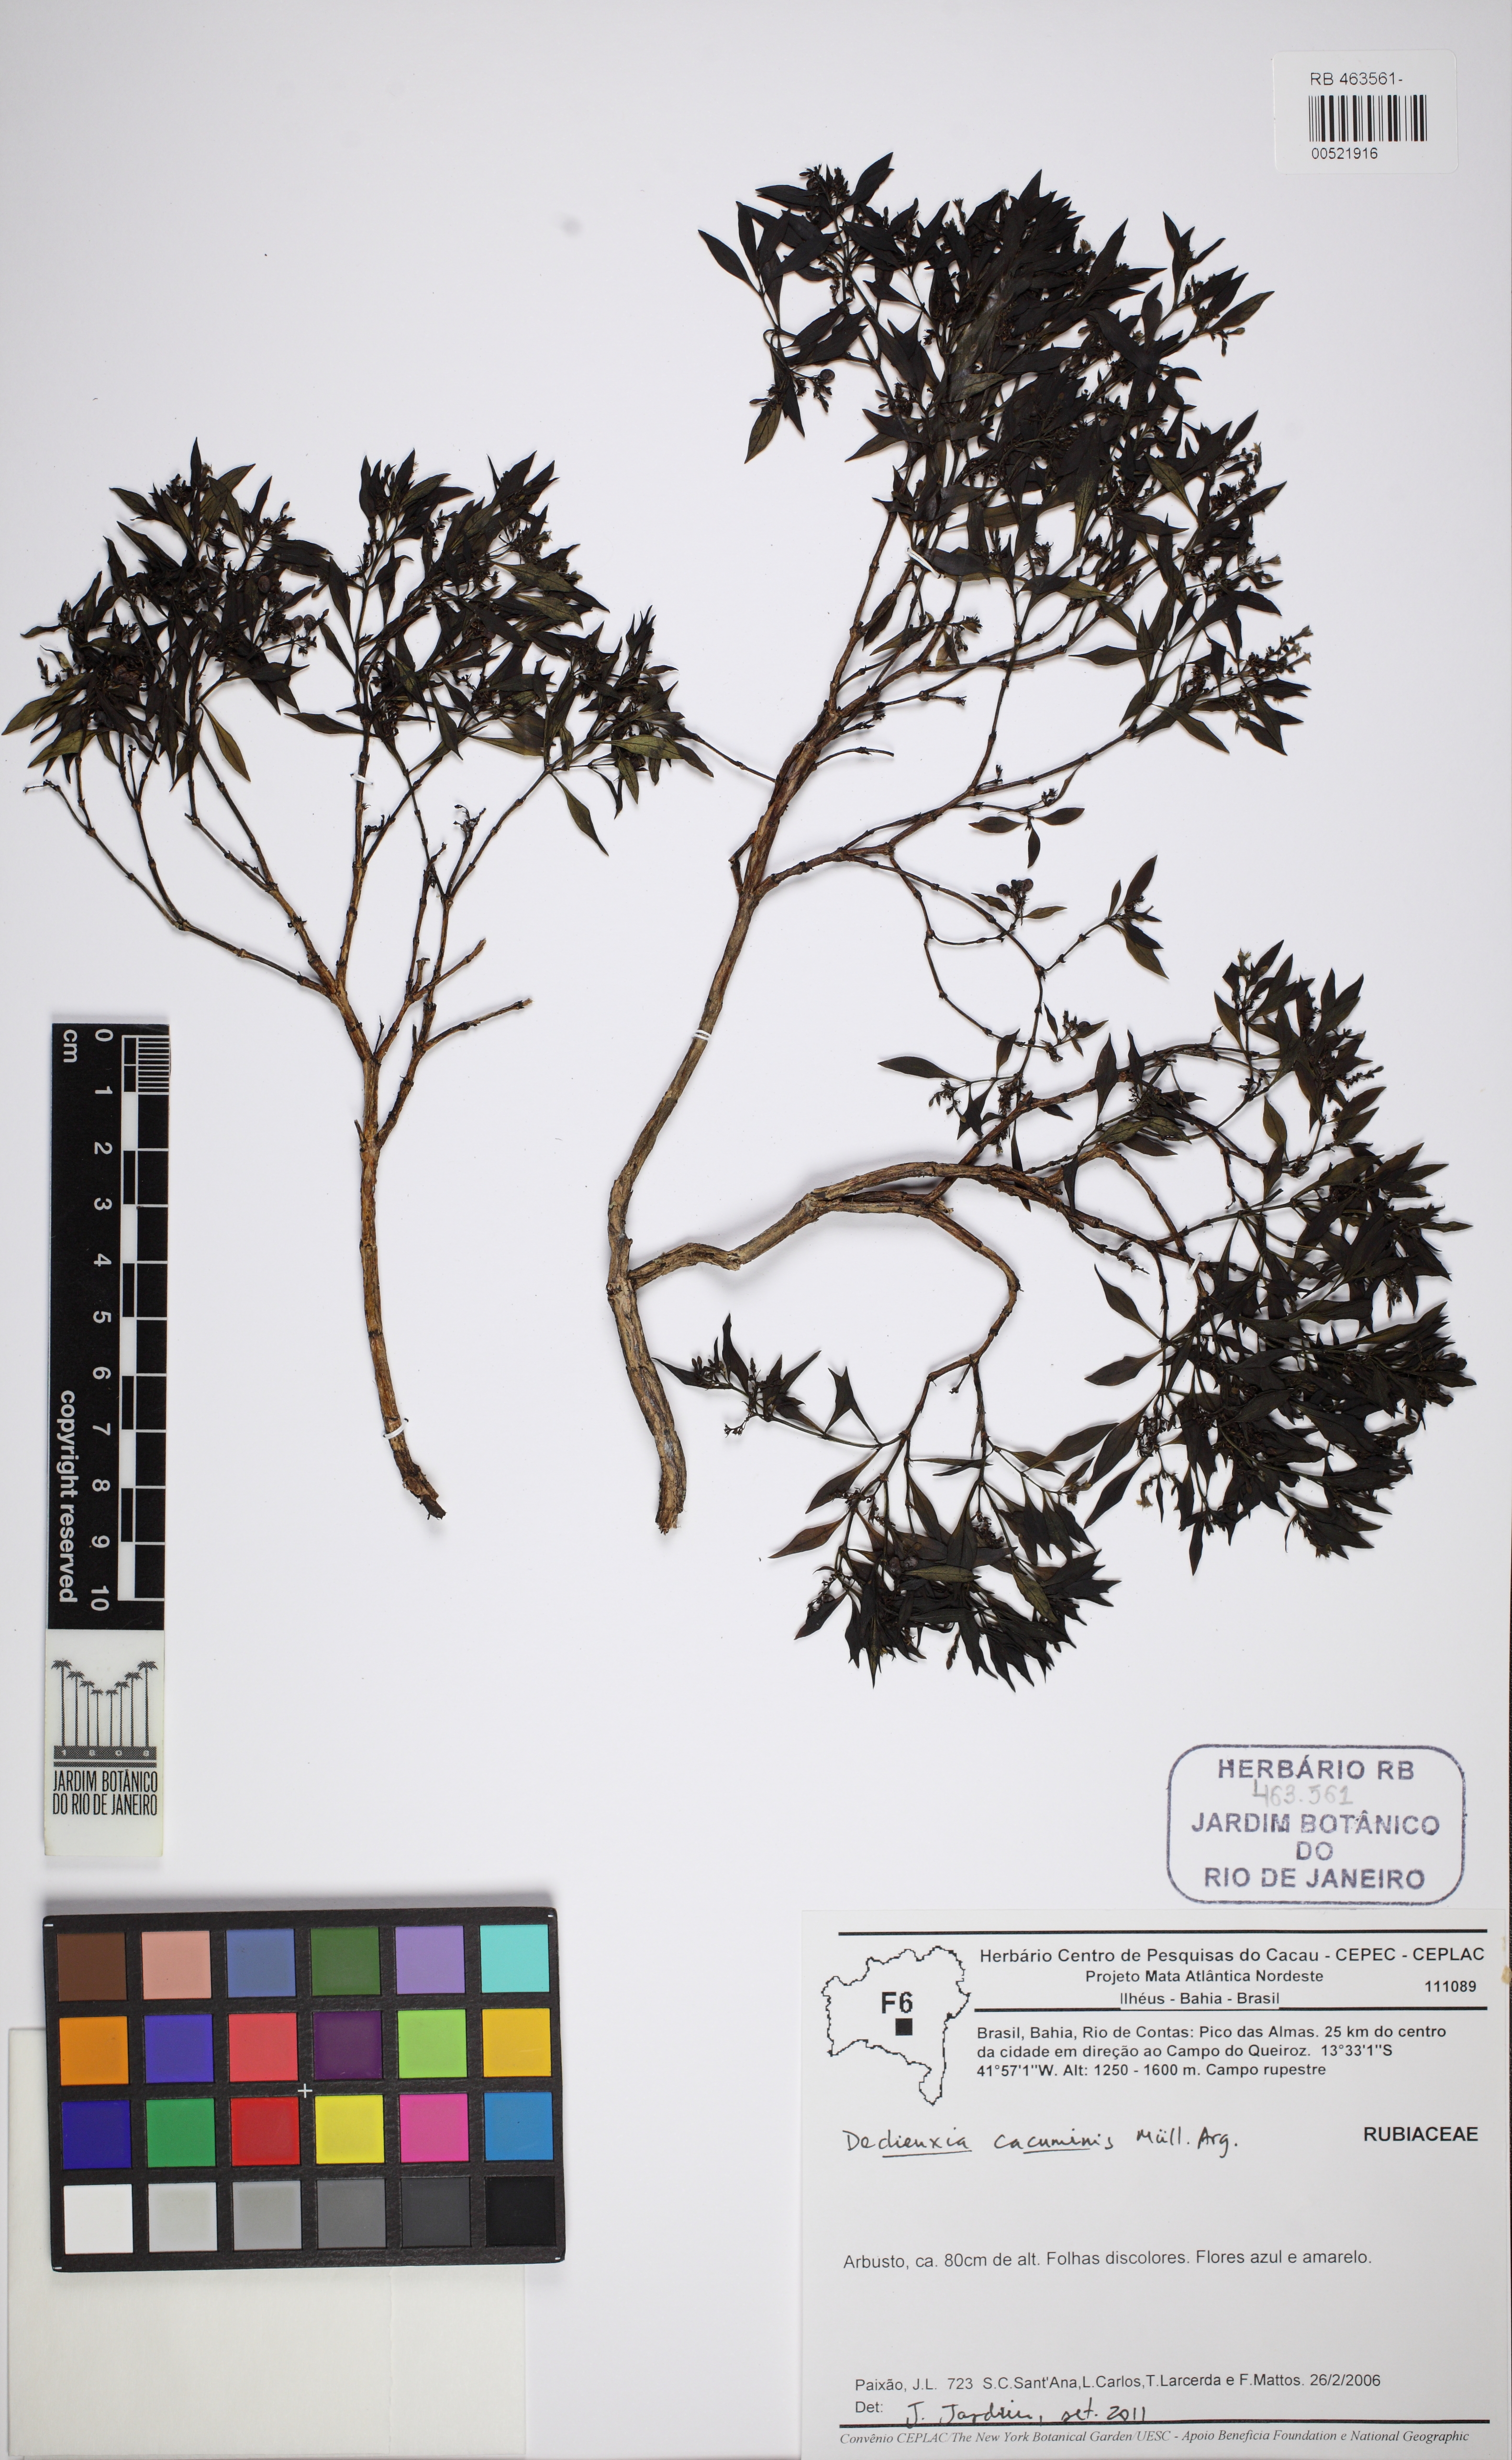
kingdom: Plantae
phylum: Tracheophyta
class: Magnoliopsida
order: Gentianales
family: Rubiaceae
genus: Declieuxia
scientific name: Declieuxia cacuminis
